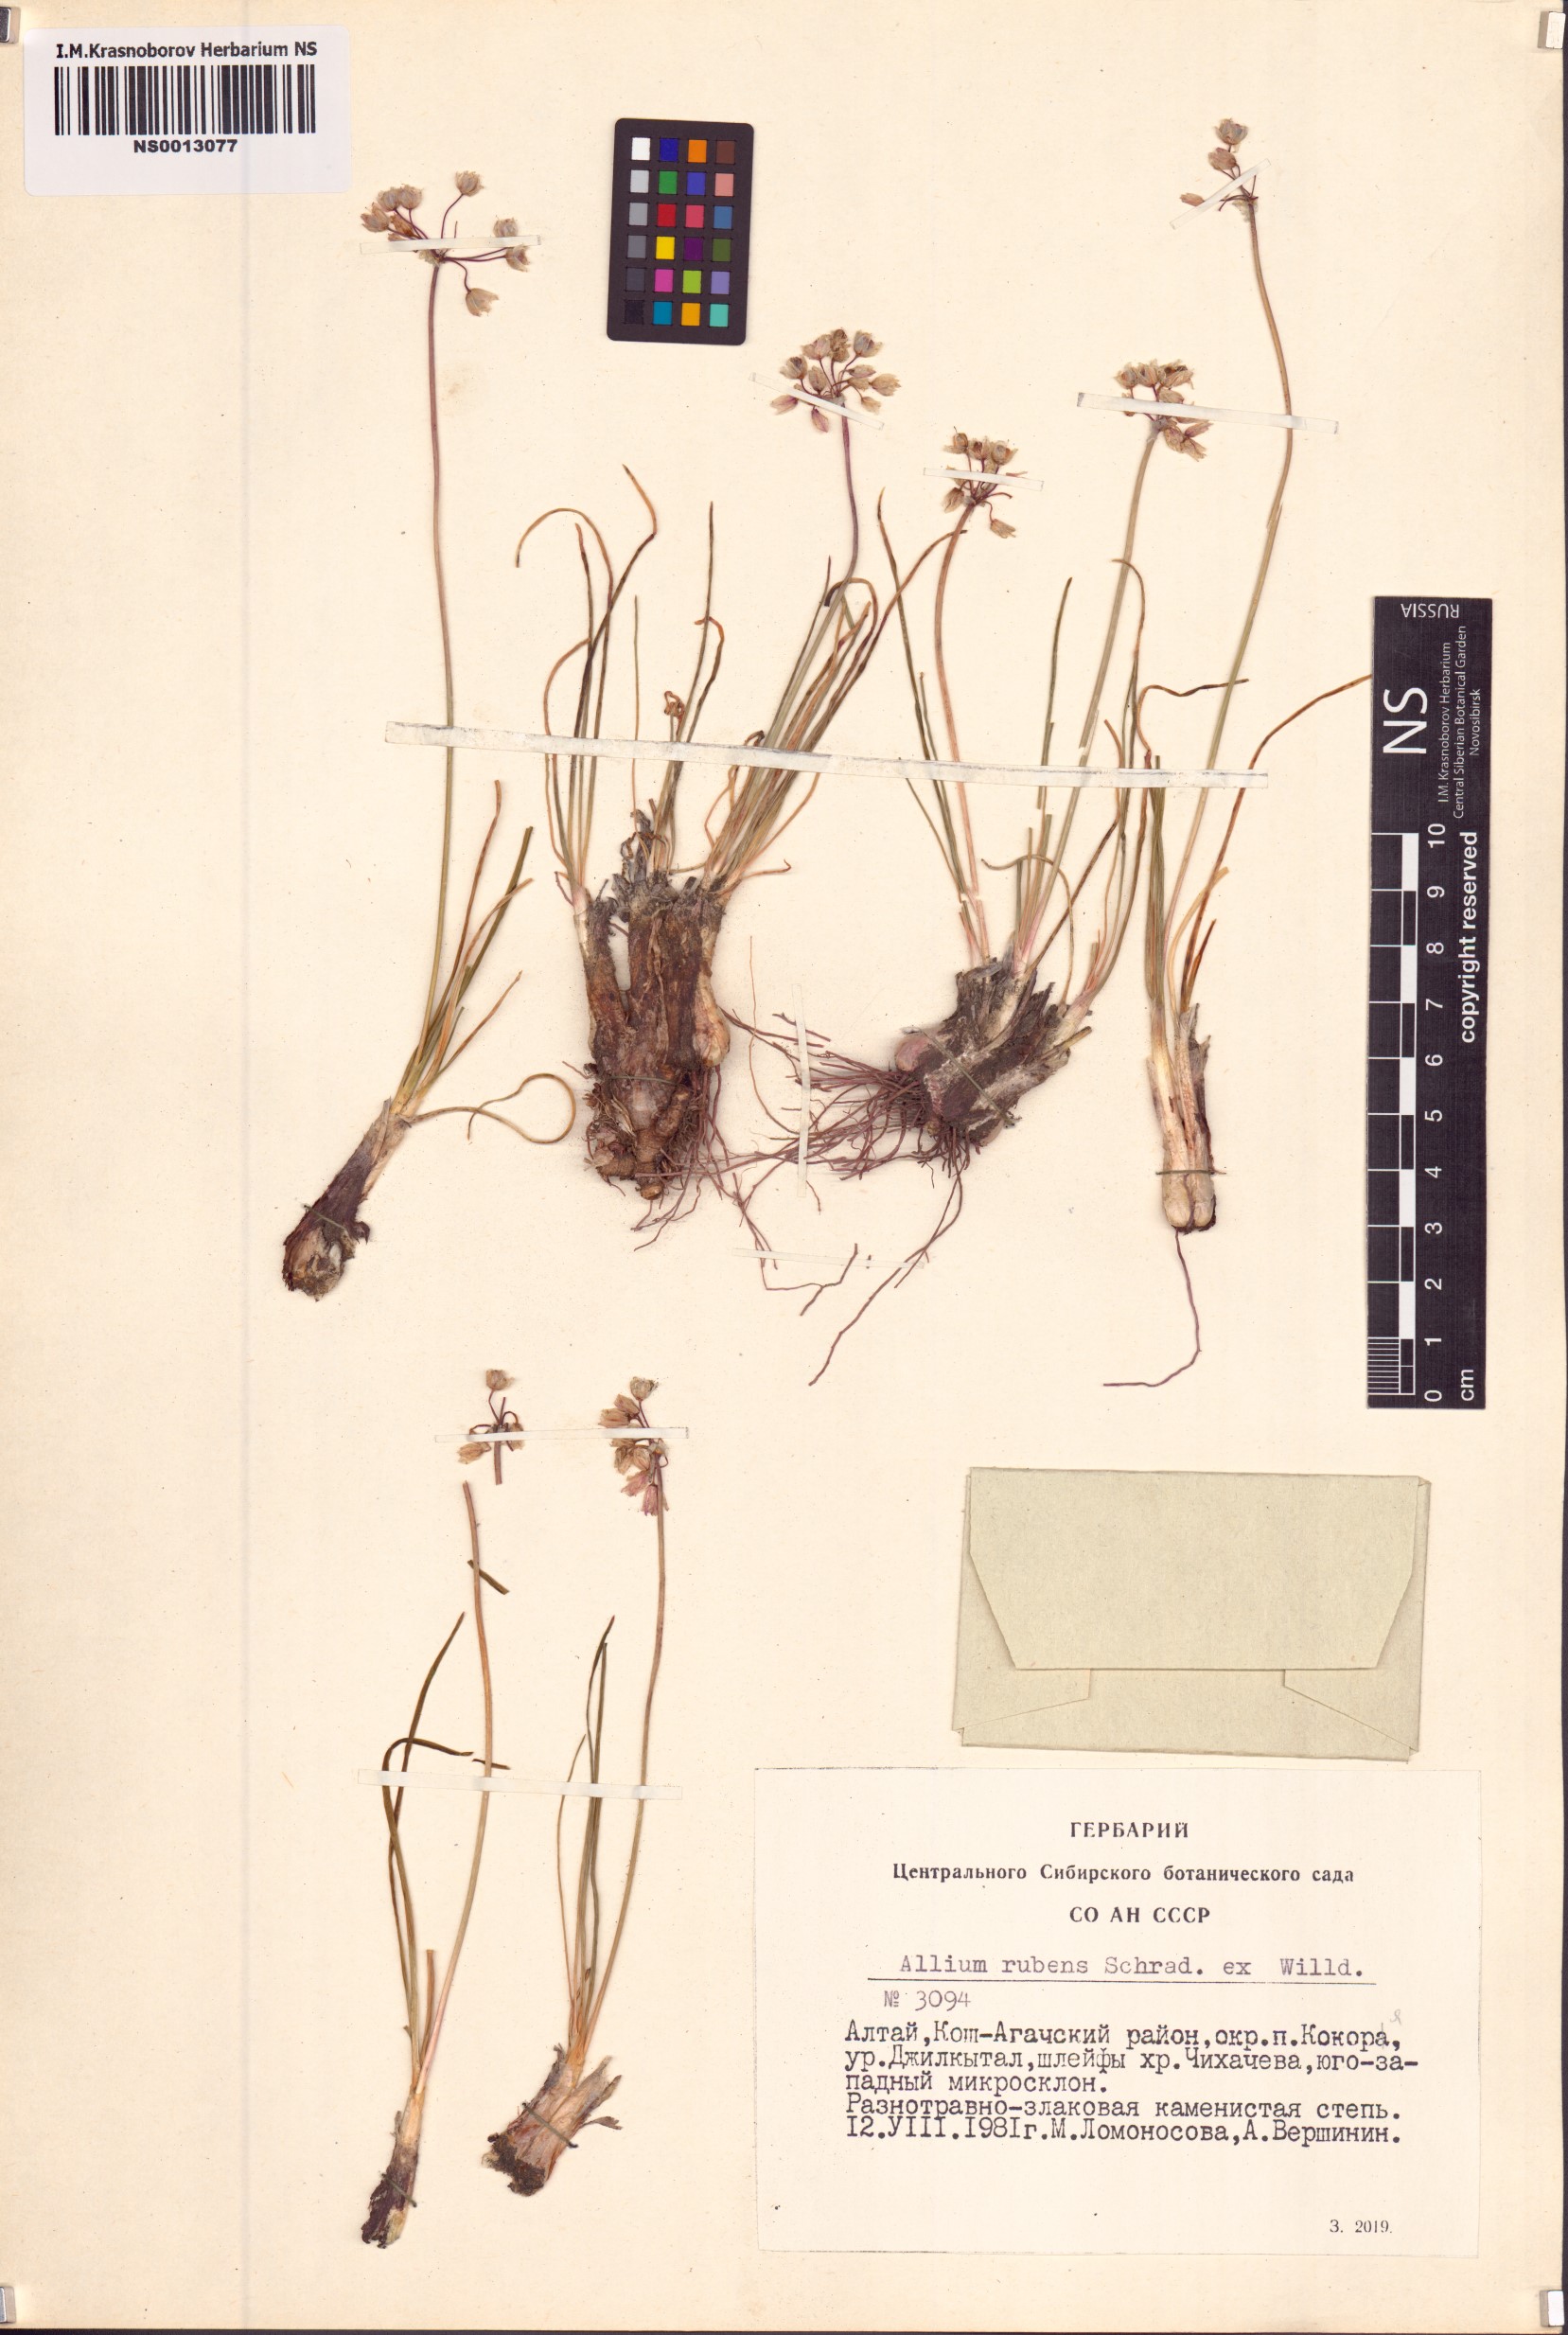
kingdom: Plantae
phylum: Tracheophyta
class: Liliopsida
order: Asparagales
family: Amaryllidaceae
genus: Allium
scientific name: Allium rubens
